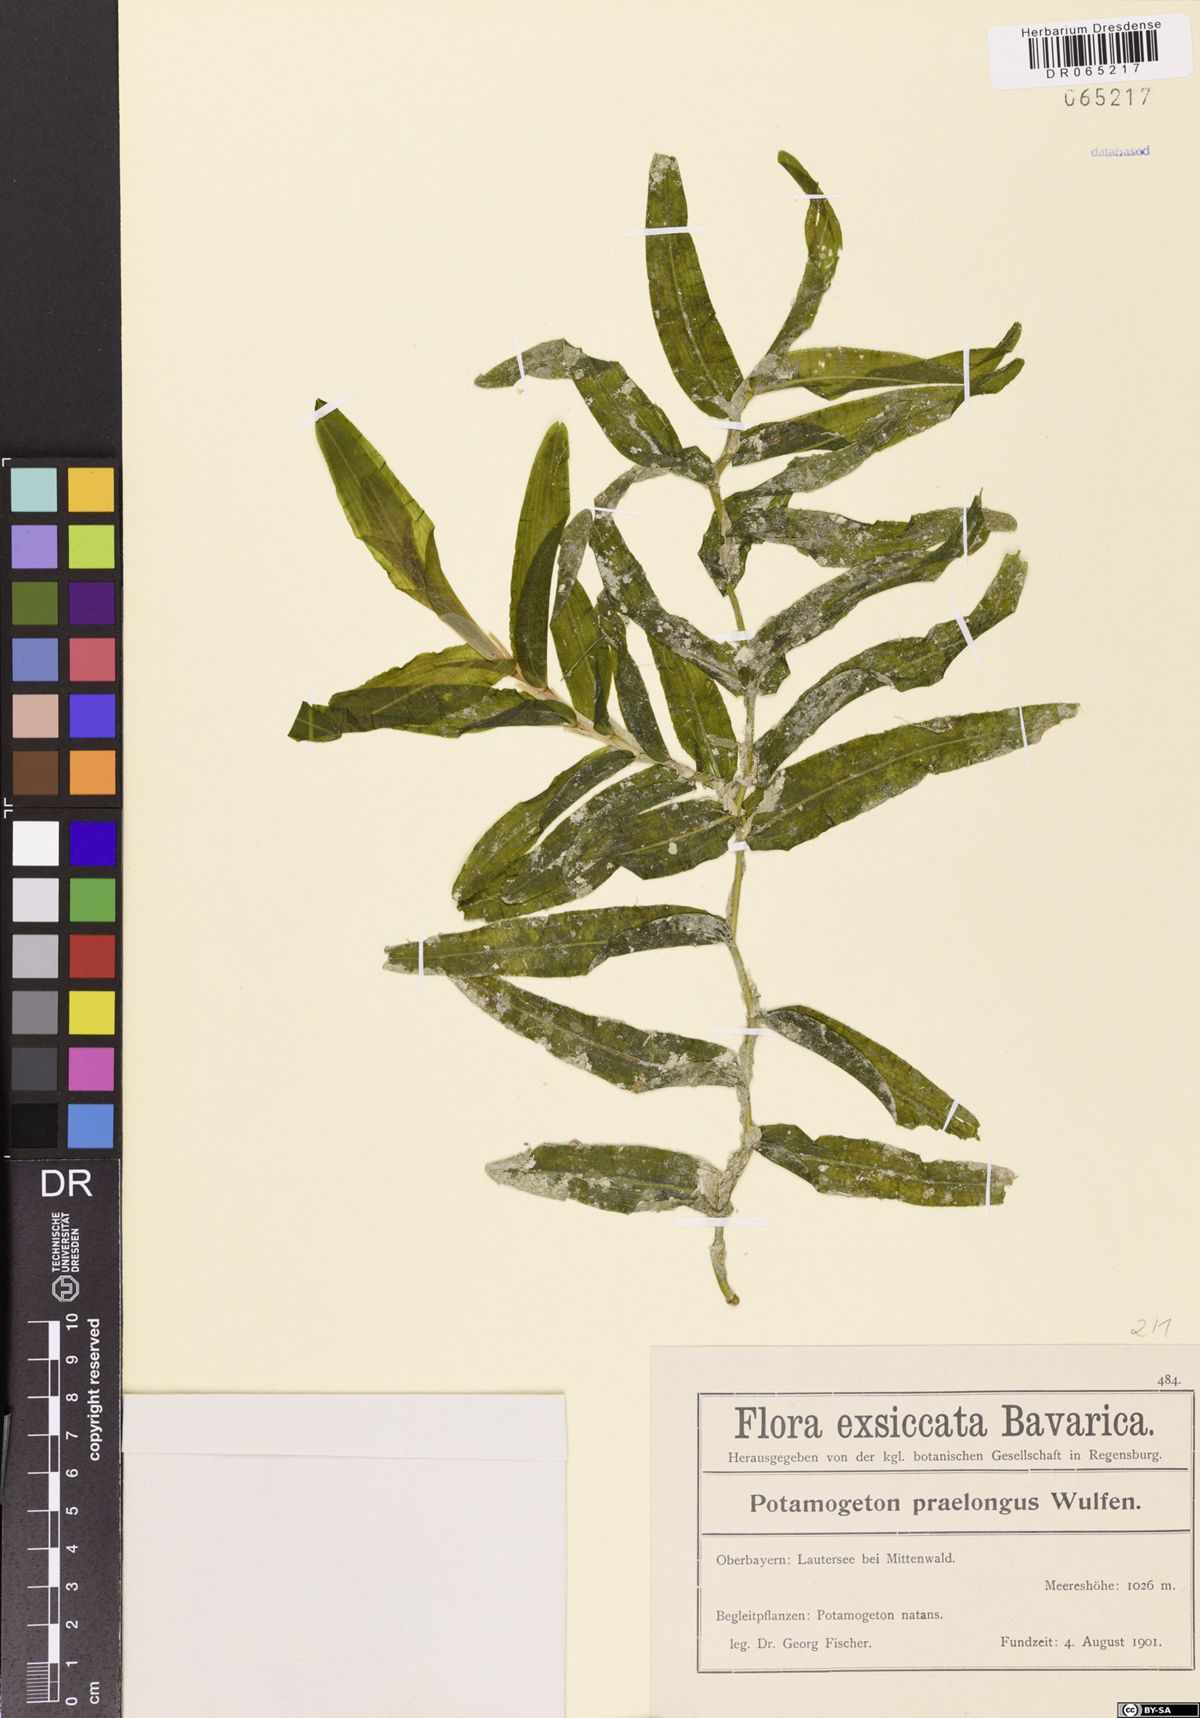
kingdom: Plantae
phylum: Tracheophyta
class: Liliopsida
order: Alismatales
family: Potamogetonaceae
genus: Potamogeton
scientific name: Potamogeton praelongus
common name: Long-stalked pondweed
